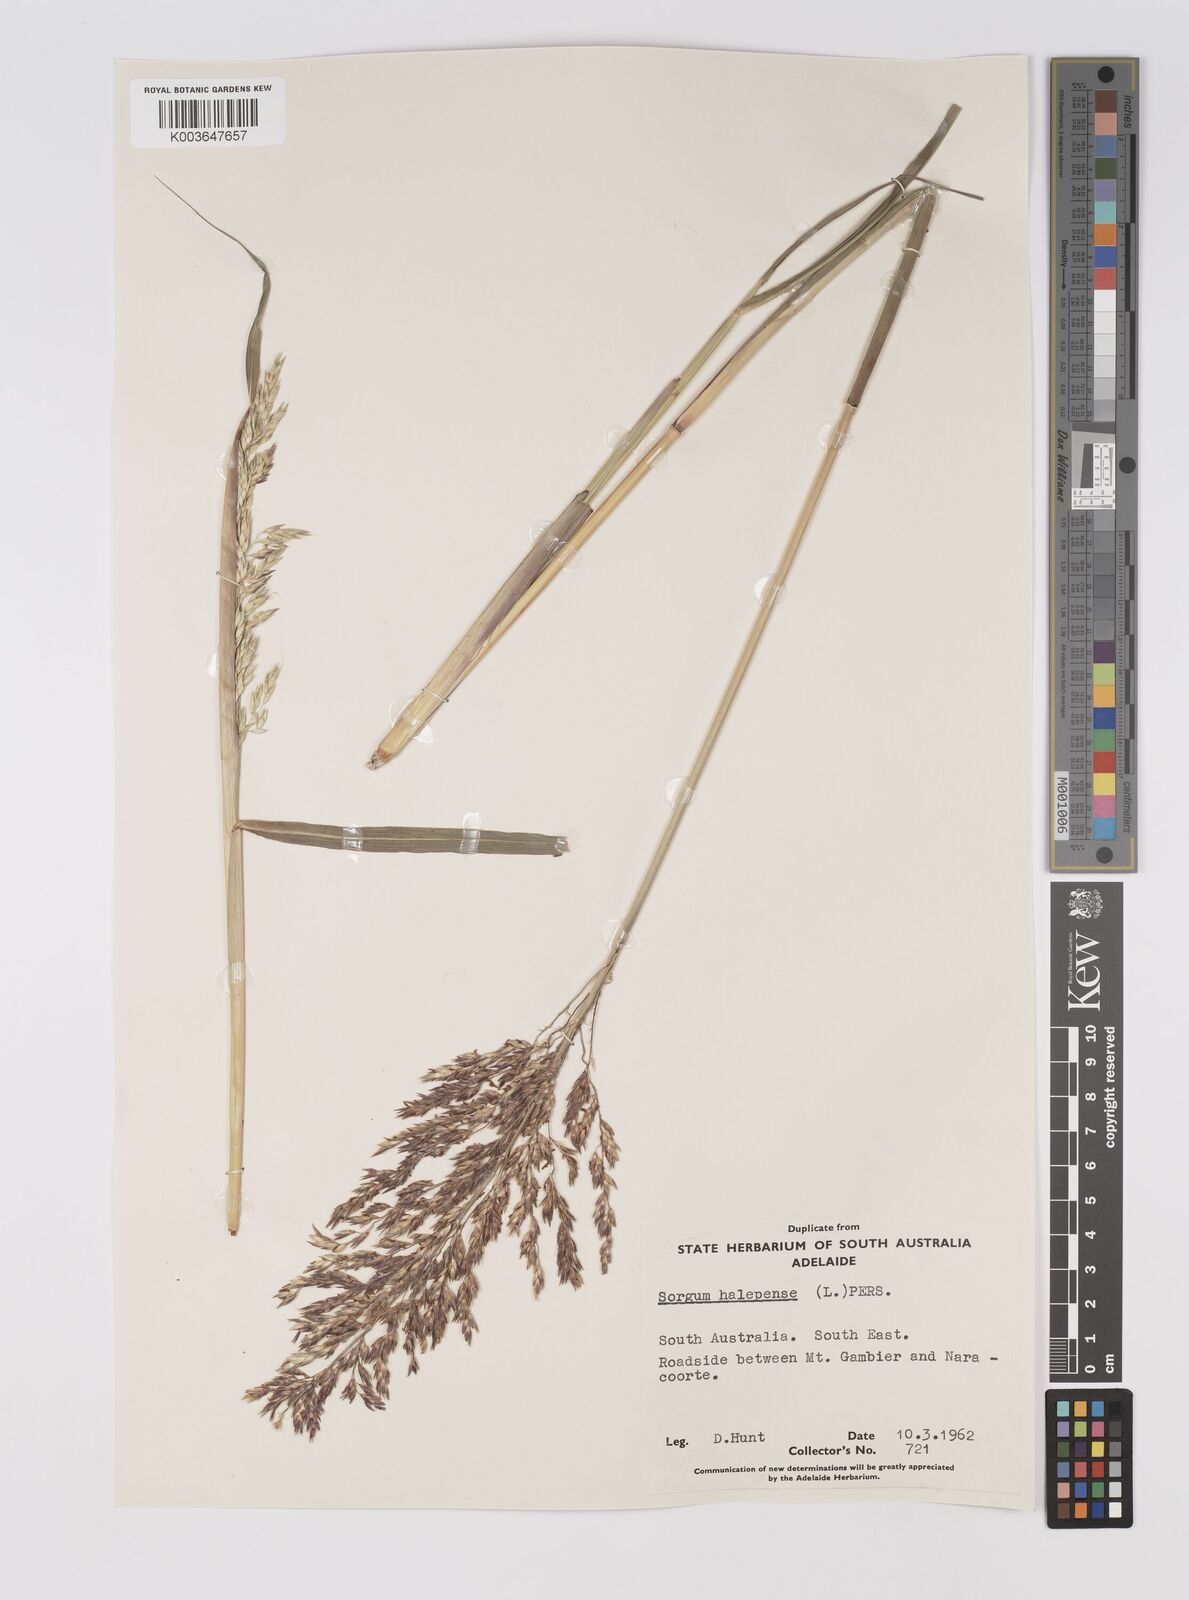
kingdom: Plantae
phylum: Tracheophyta
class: Liliopsida
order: Poales
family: Poaceae
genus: Sorghum
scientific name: Sorghum halepense
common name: Johnson-grass
